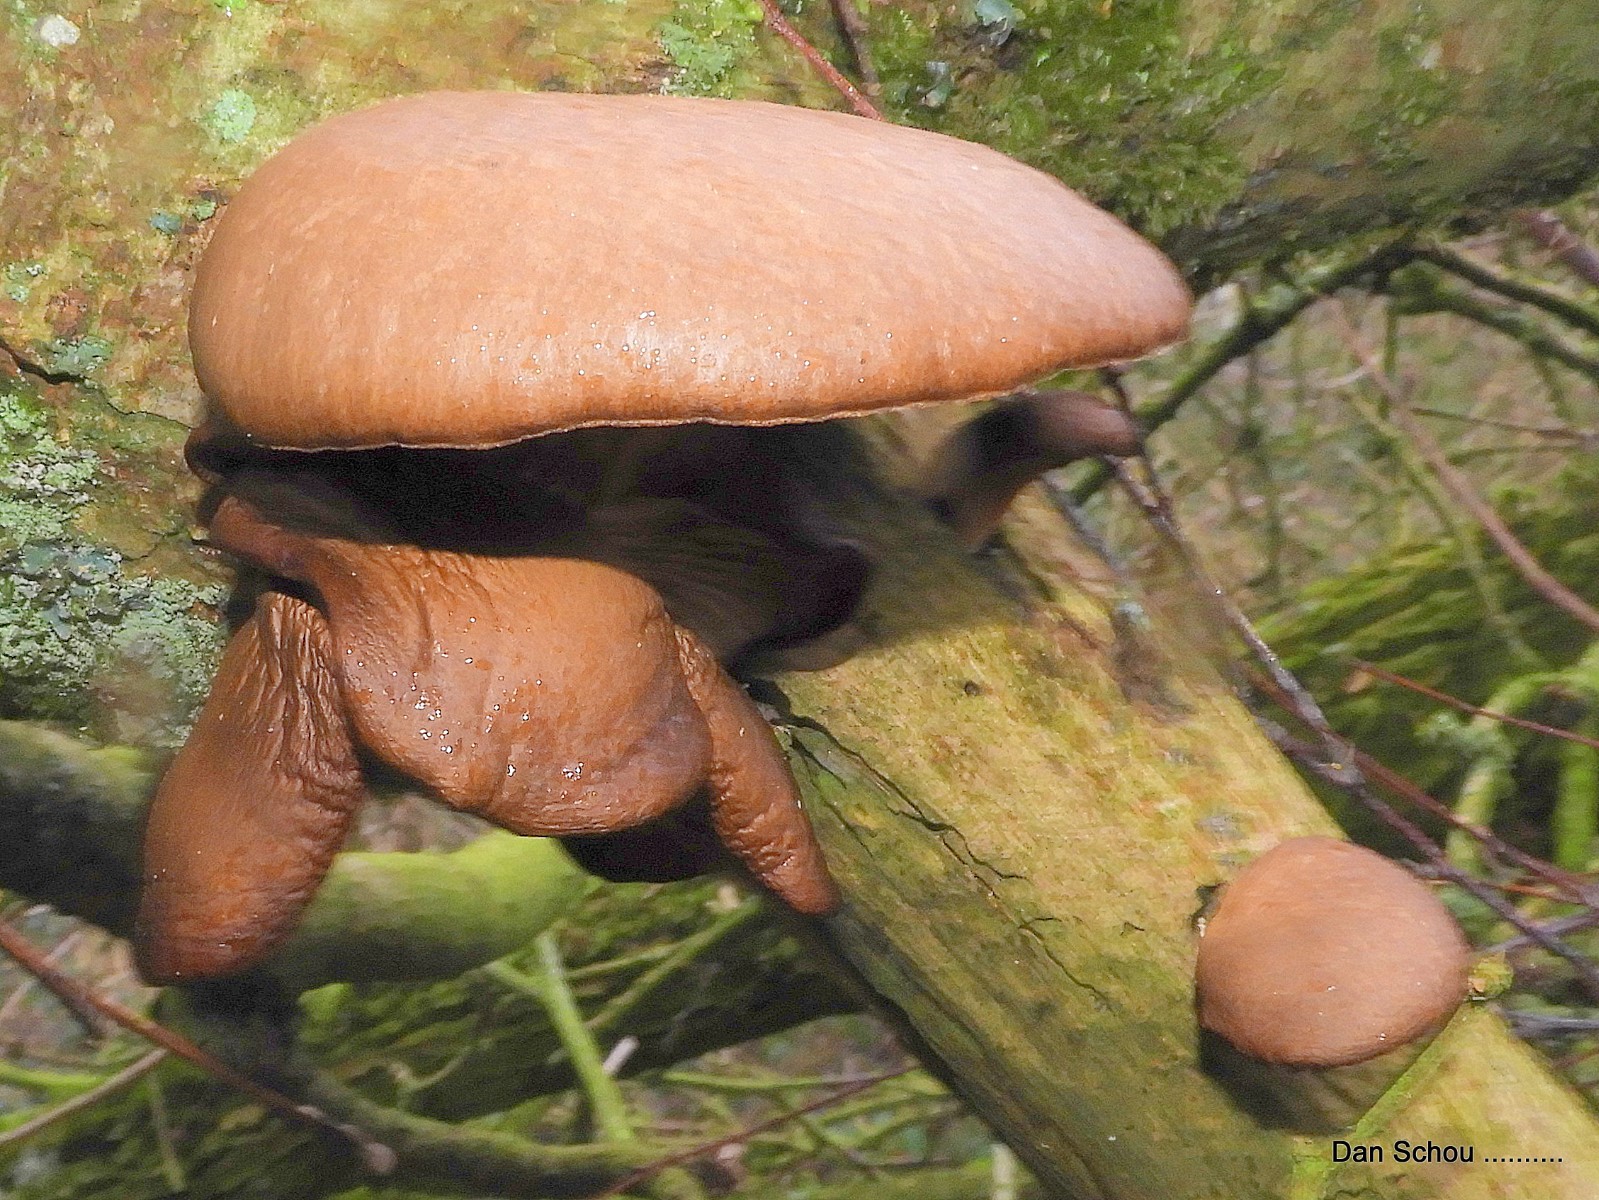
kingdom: Fungi
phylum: Basidiomycota
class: Agaricomycetes
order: Agaricales
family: Pleurotaceae
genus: Pleurotus
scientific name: Pleurotus ostreatus
